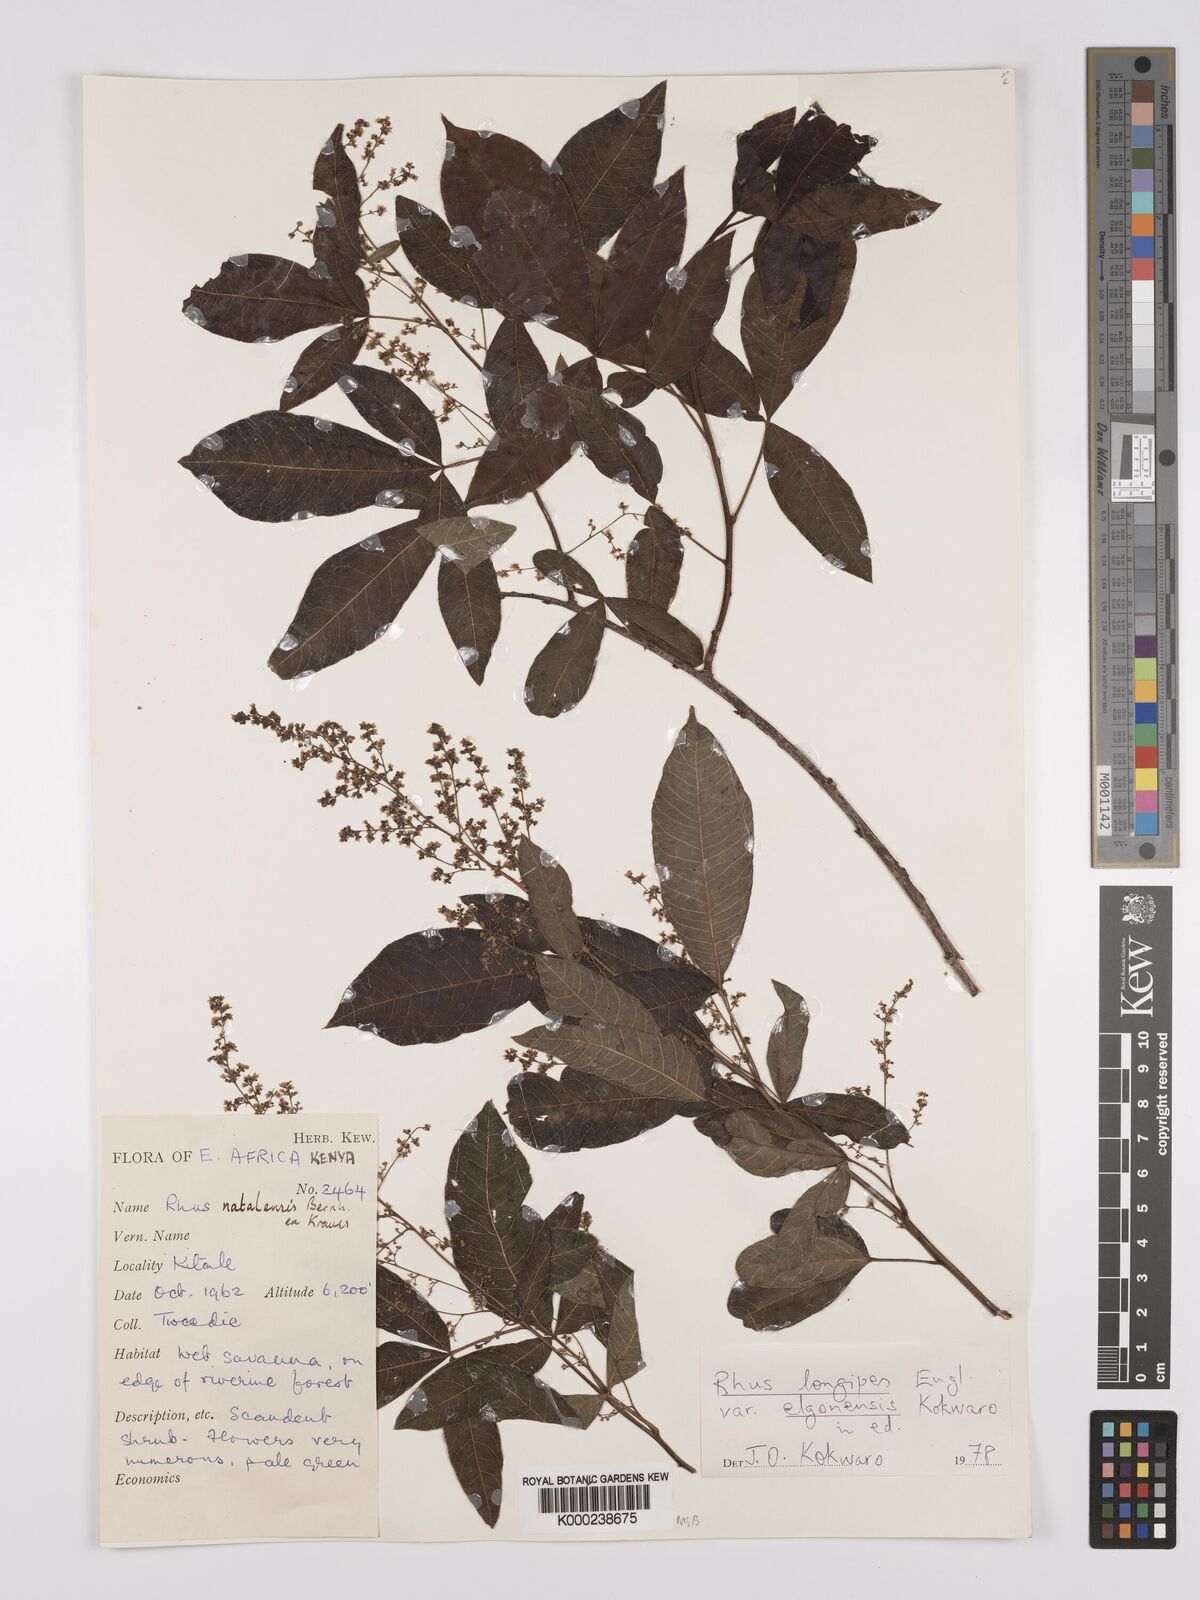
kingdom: Plantae
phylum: Tracheophyta
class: Magnoliopsida
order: Sapindales
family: Anacardiaceae
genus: Searsia
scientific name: Searsia longipes
